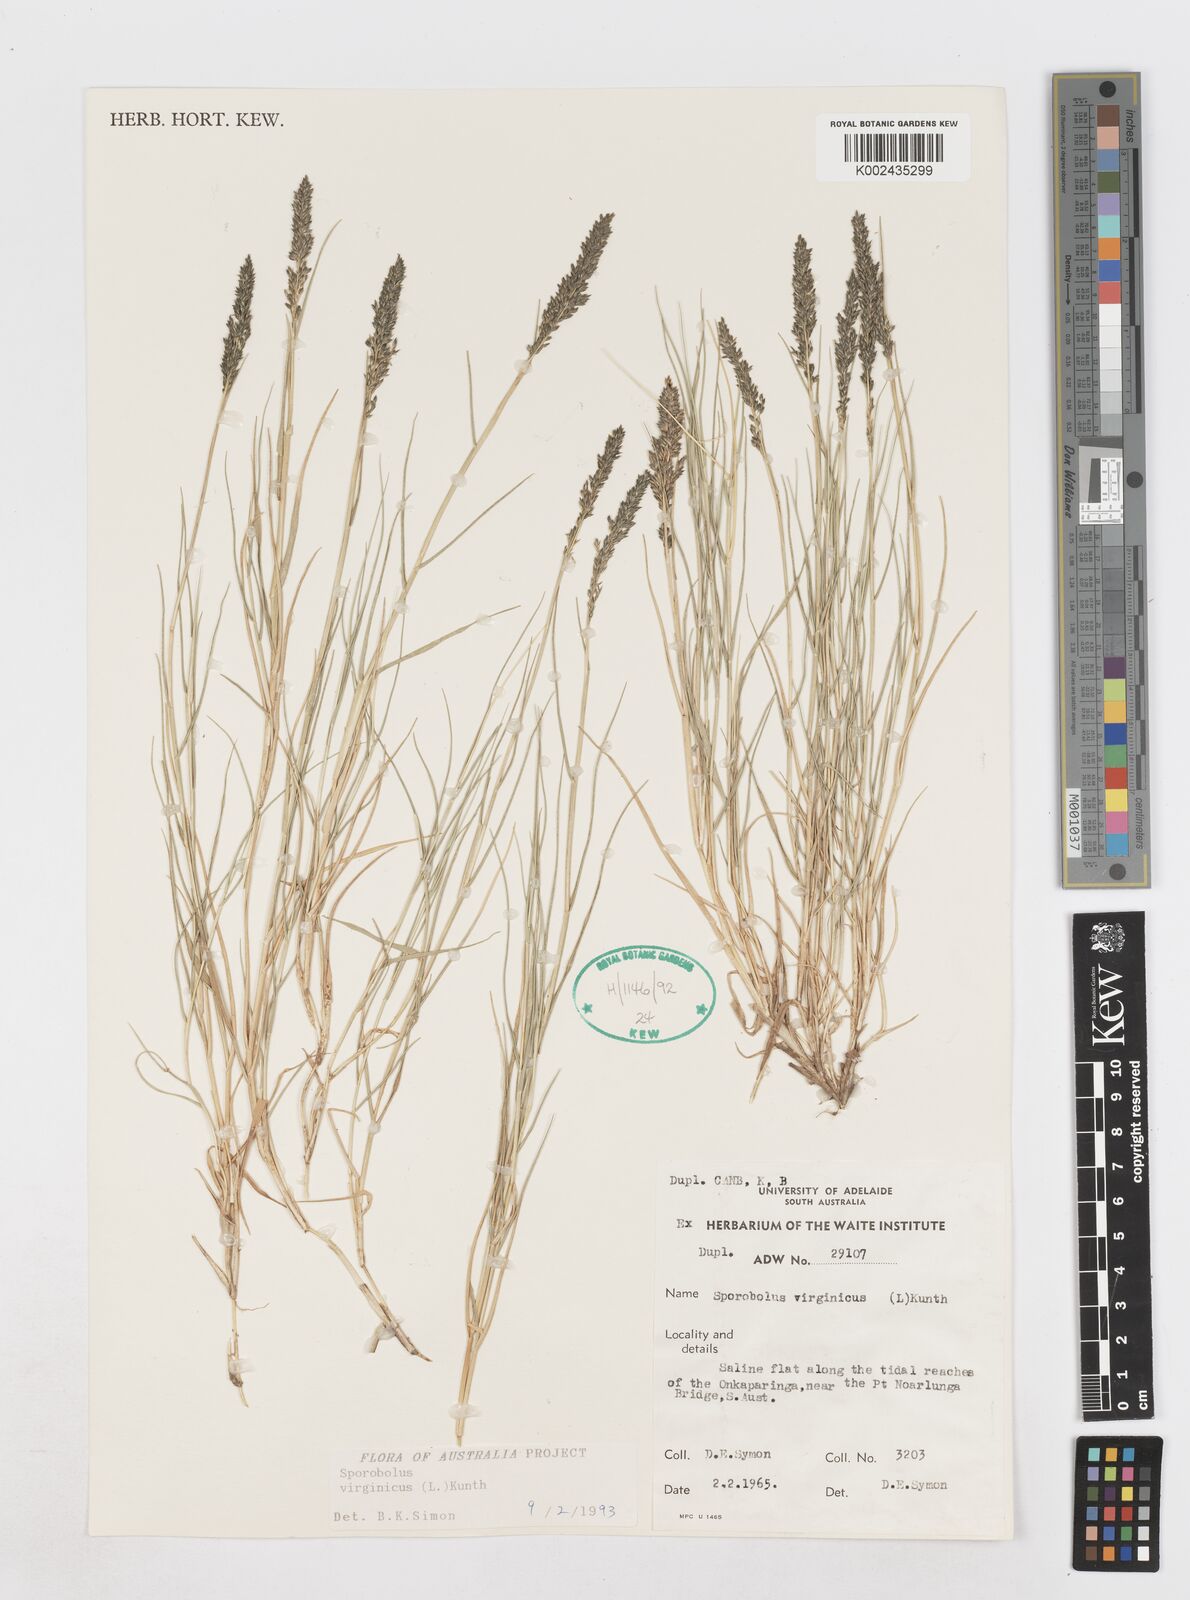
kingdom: Plantae
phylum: Tracheophyta
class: Liliopsida
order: Poales
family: Poaceae
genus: Sporobolus
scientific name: Sporobolus virginicus
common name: Beach dropseed
